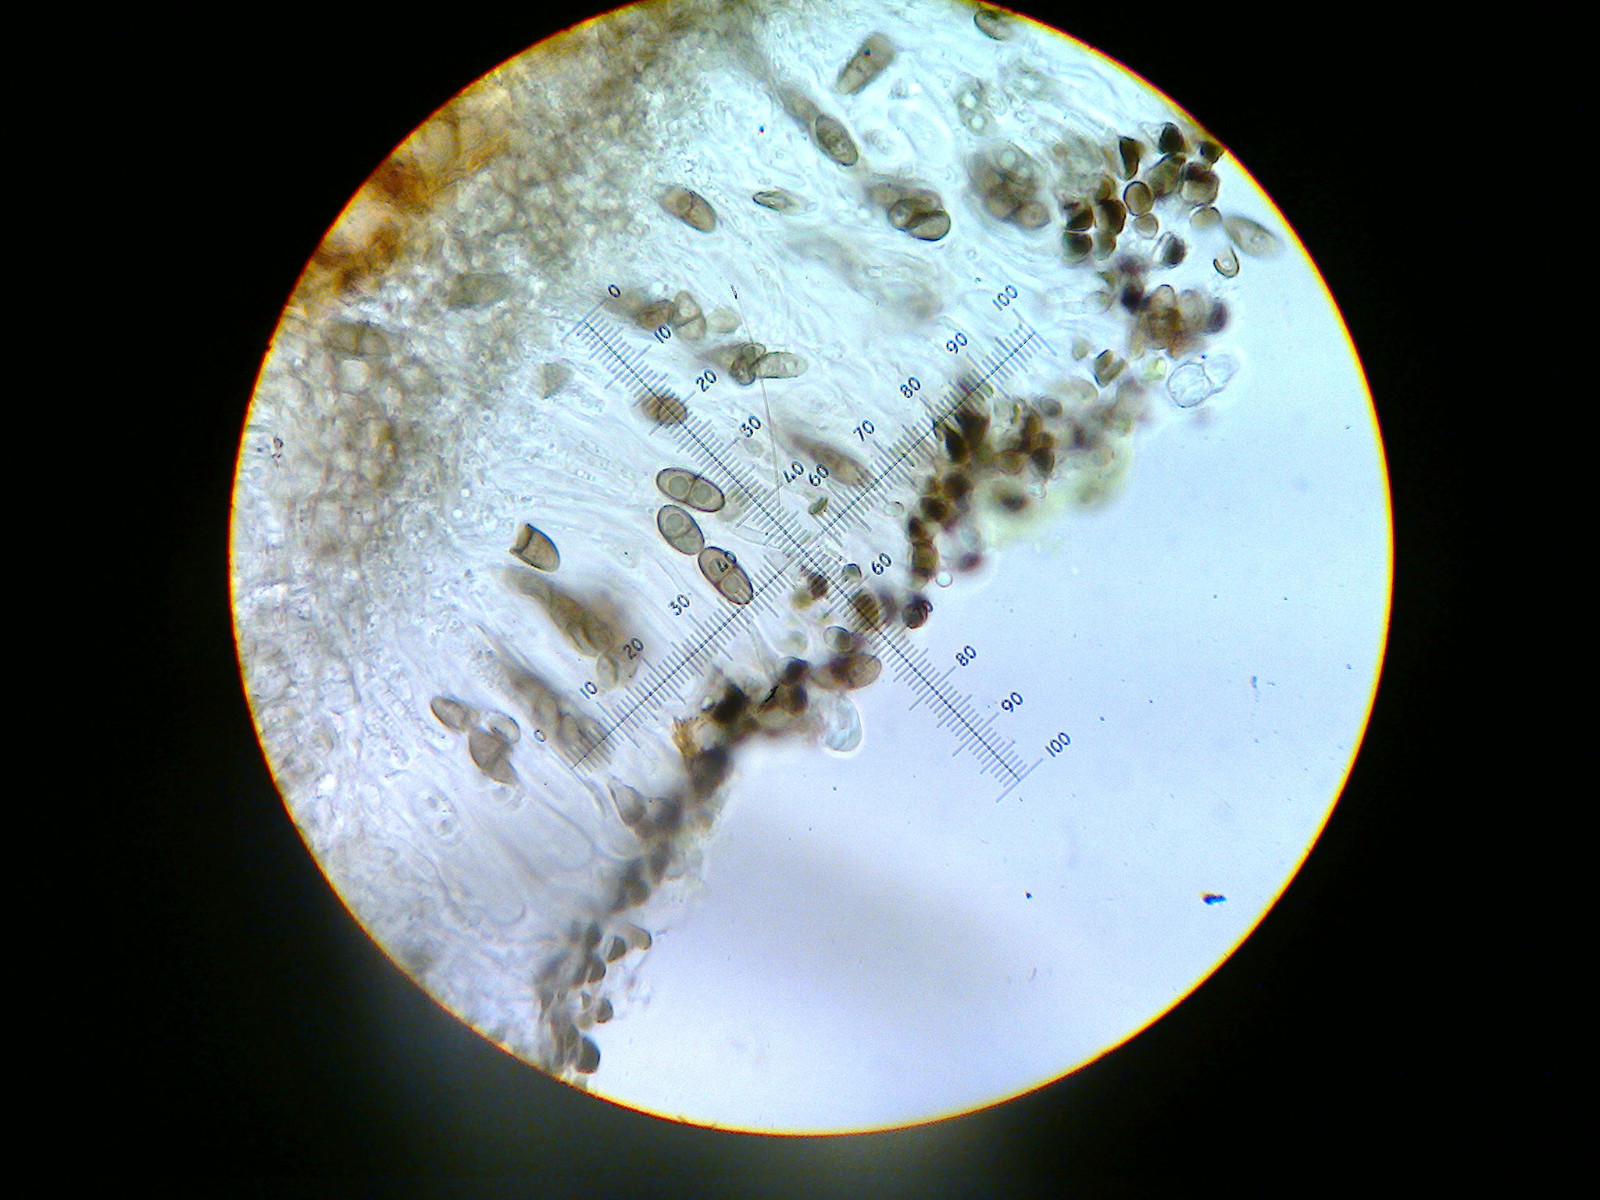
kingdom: Fungi
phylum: Ascomycota
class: Lecanoromycetes
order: Caliciales
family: Caliciaceae
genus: Amandinea
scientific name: Amandinea punctata
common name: liden sortskivelav
